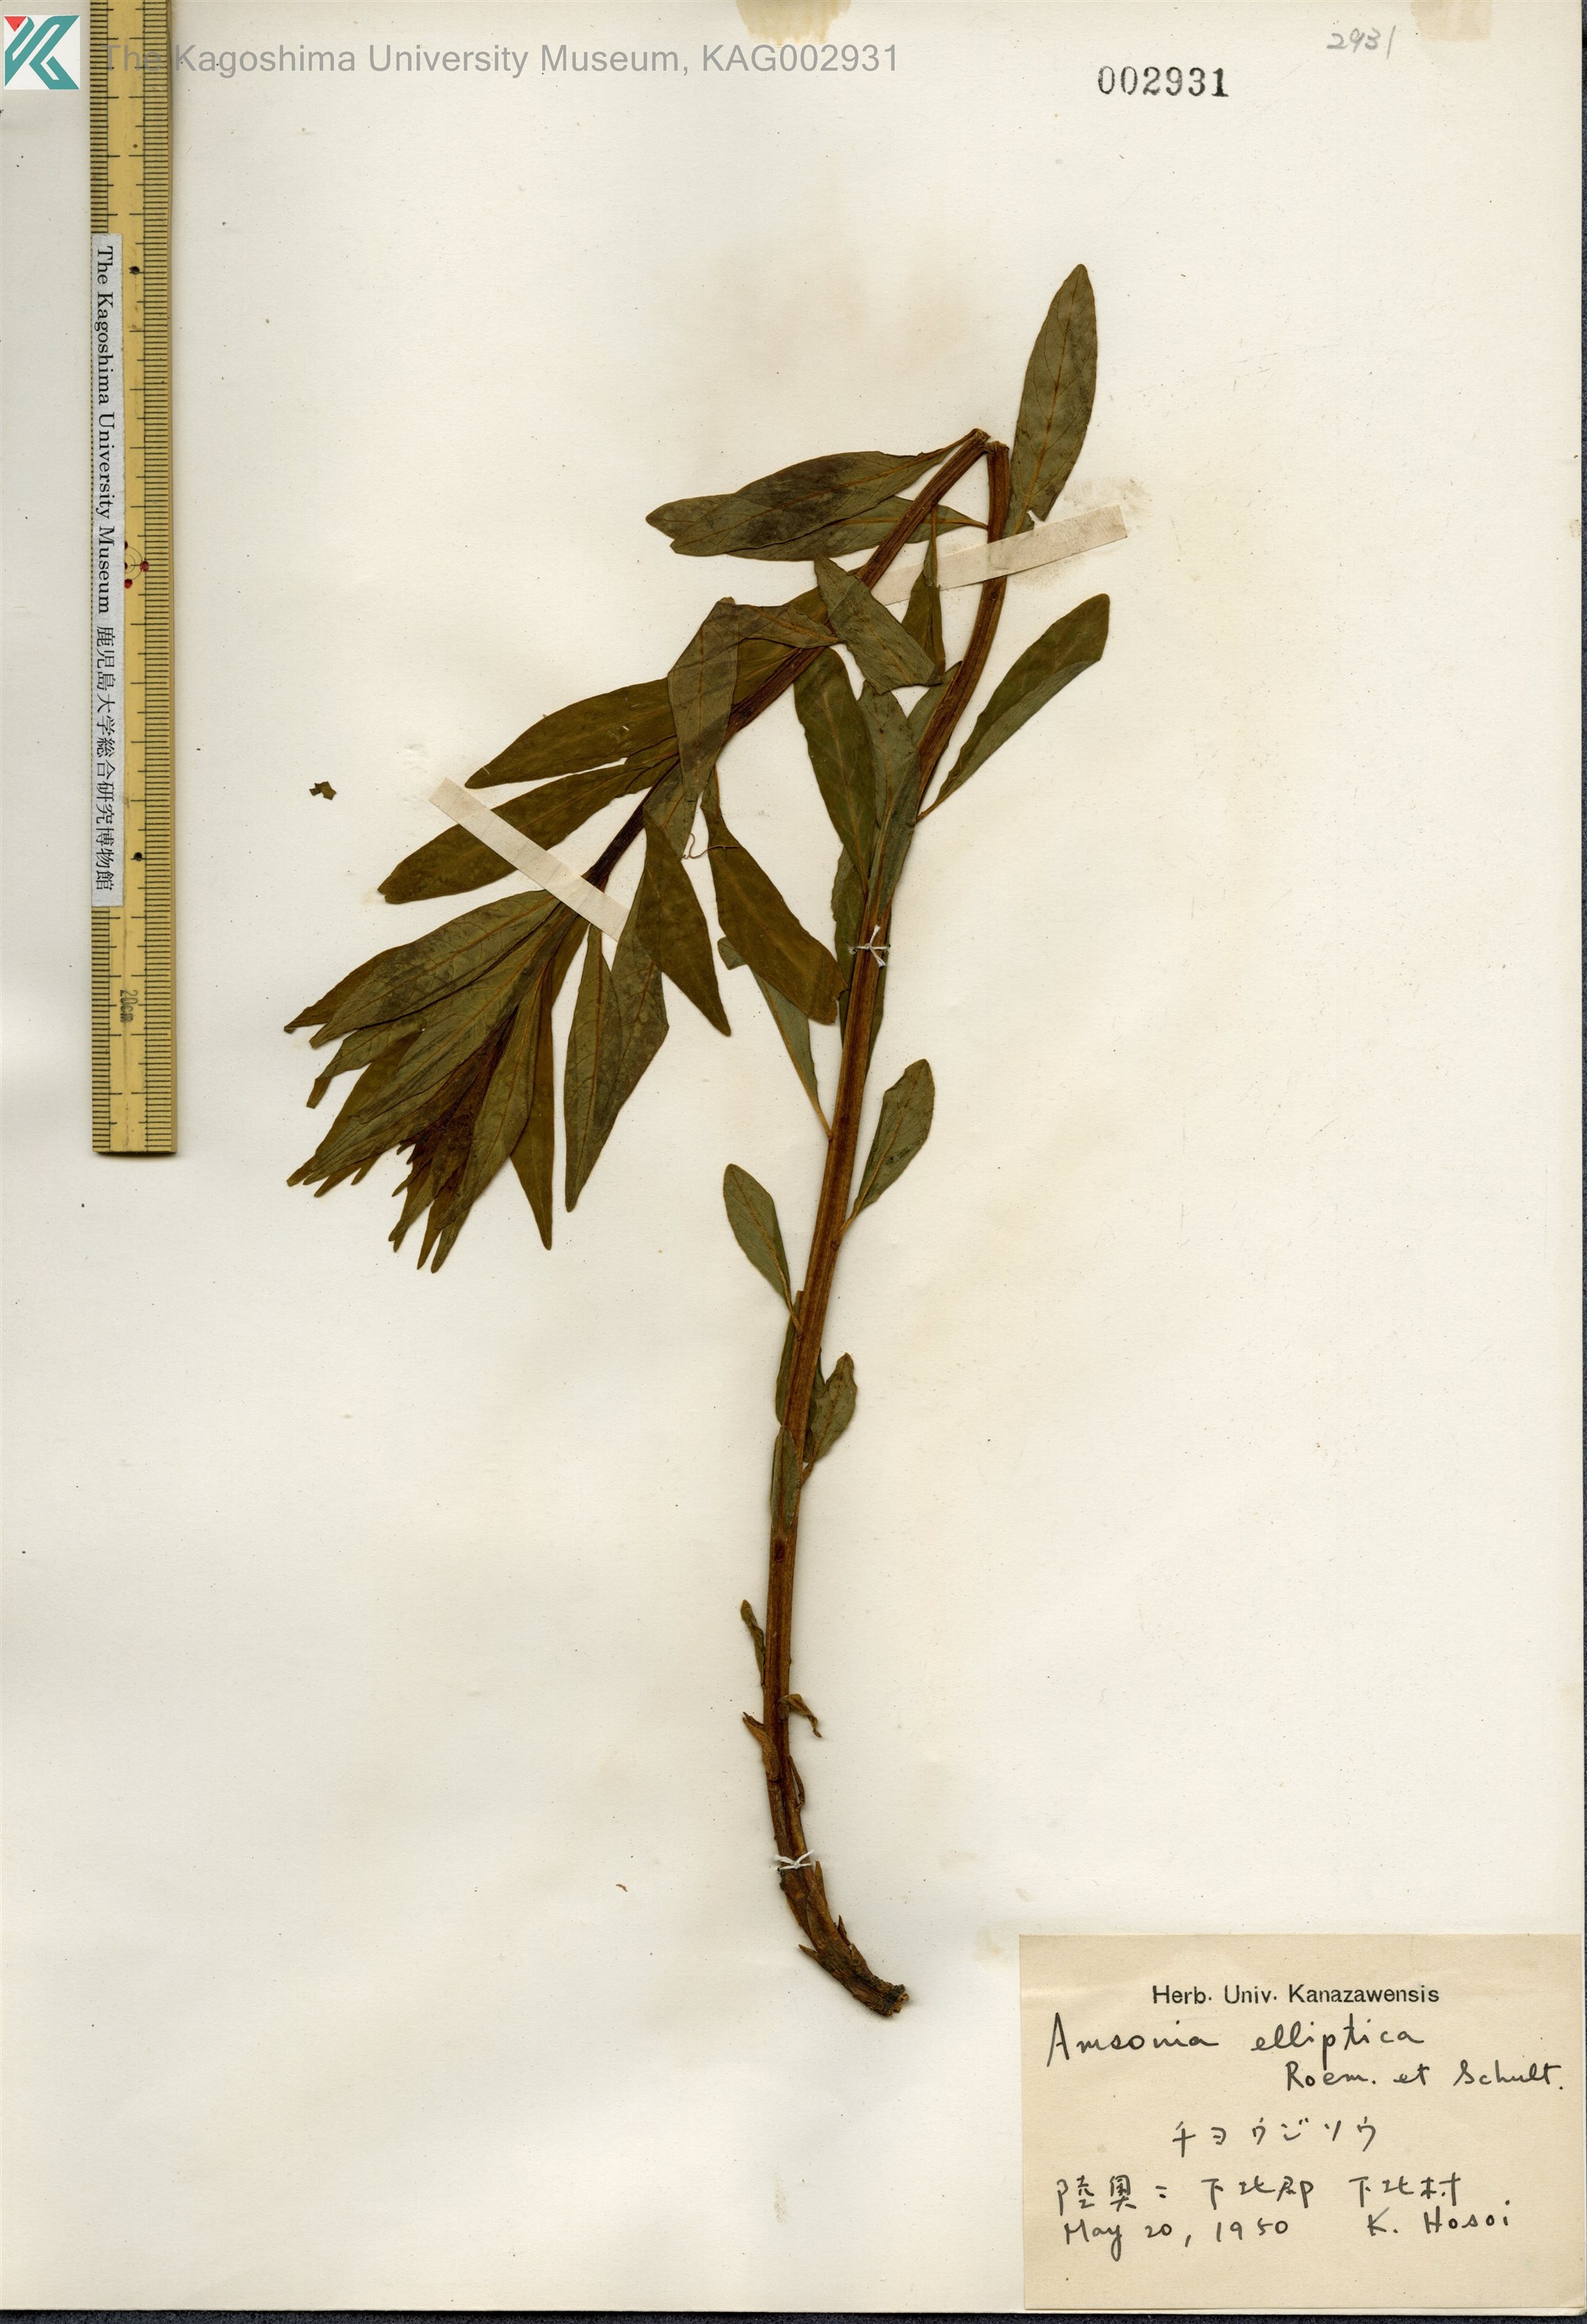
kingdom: Plantae
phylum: Tracheophyta
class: Magnoliopsida
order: Gentianales
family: Apocynaceae
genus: Amsonia
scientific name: Amsonia elliptica
